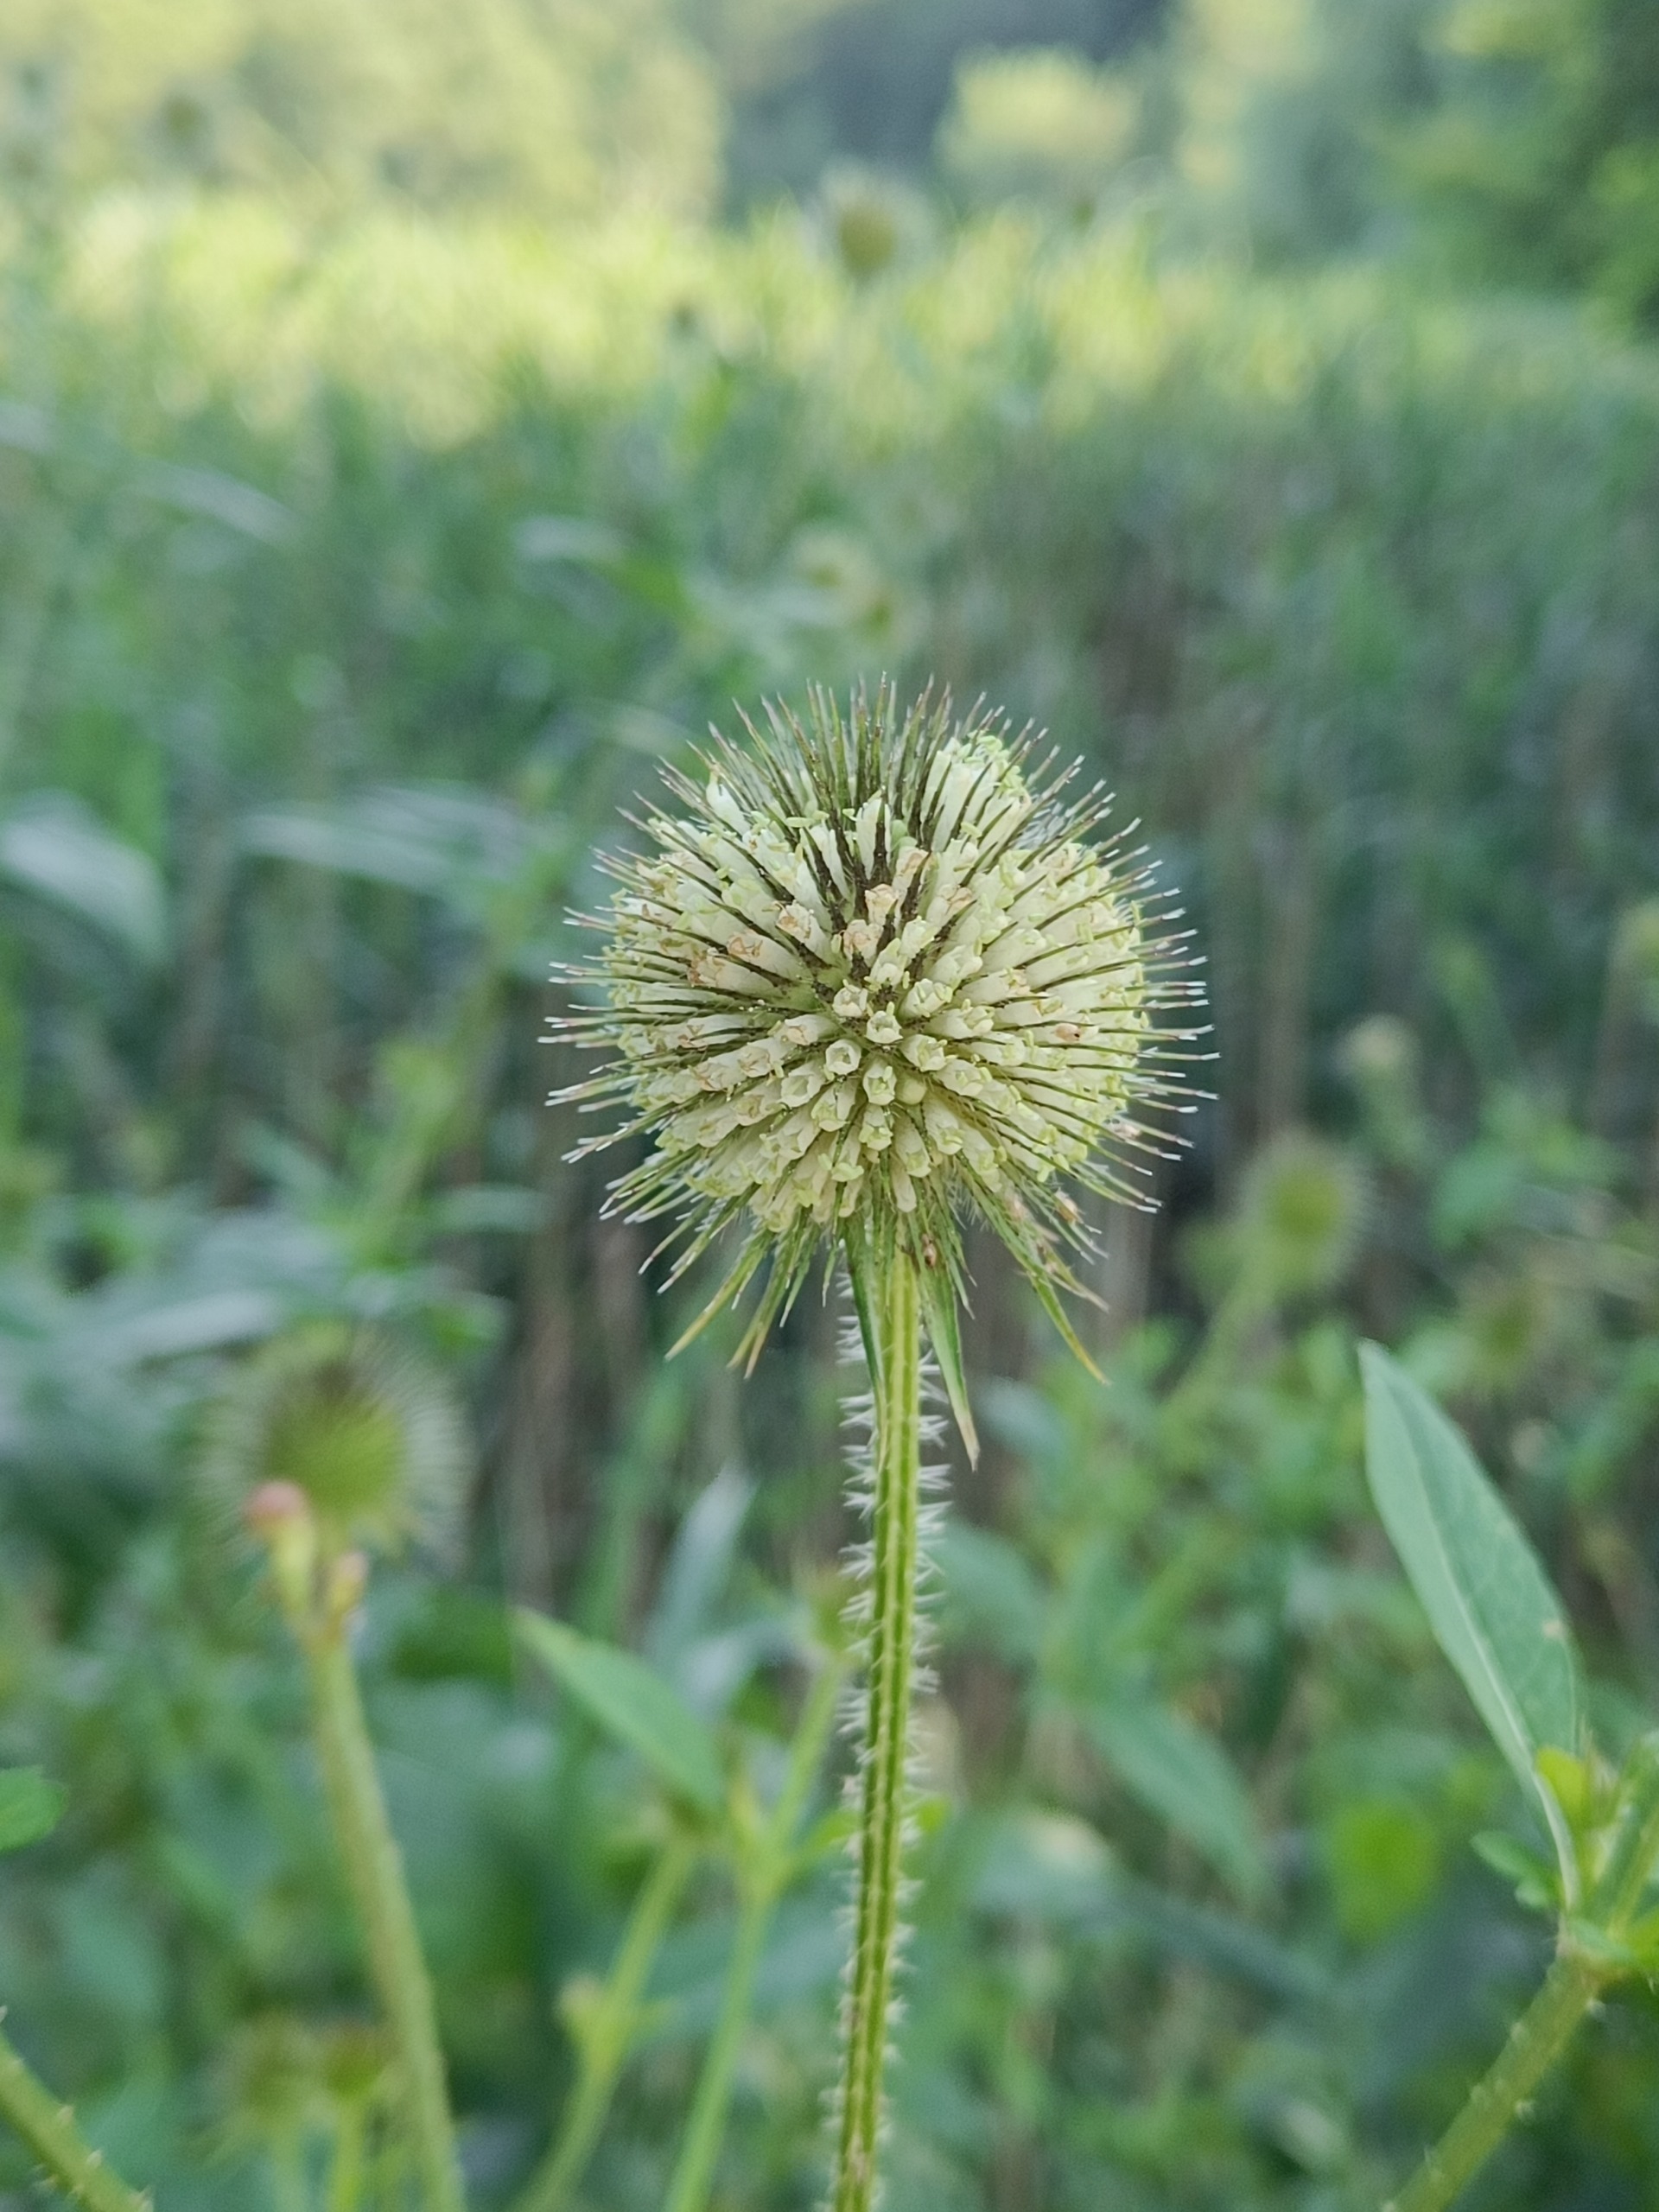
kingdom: Plantae
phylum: Tracheophyta
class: Magnoliopsida
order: Dipsacales
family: Caprifoliaceae
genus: Dipsacus
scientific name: Dipsacus strigosus
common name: Pindsvin-kartebolle
